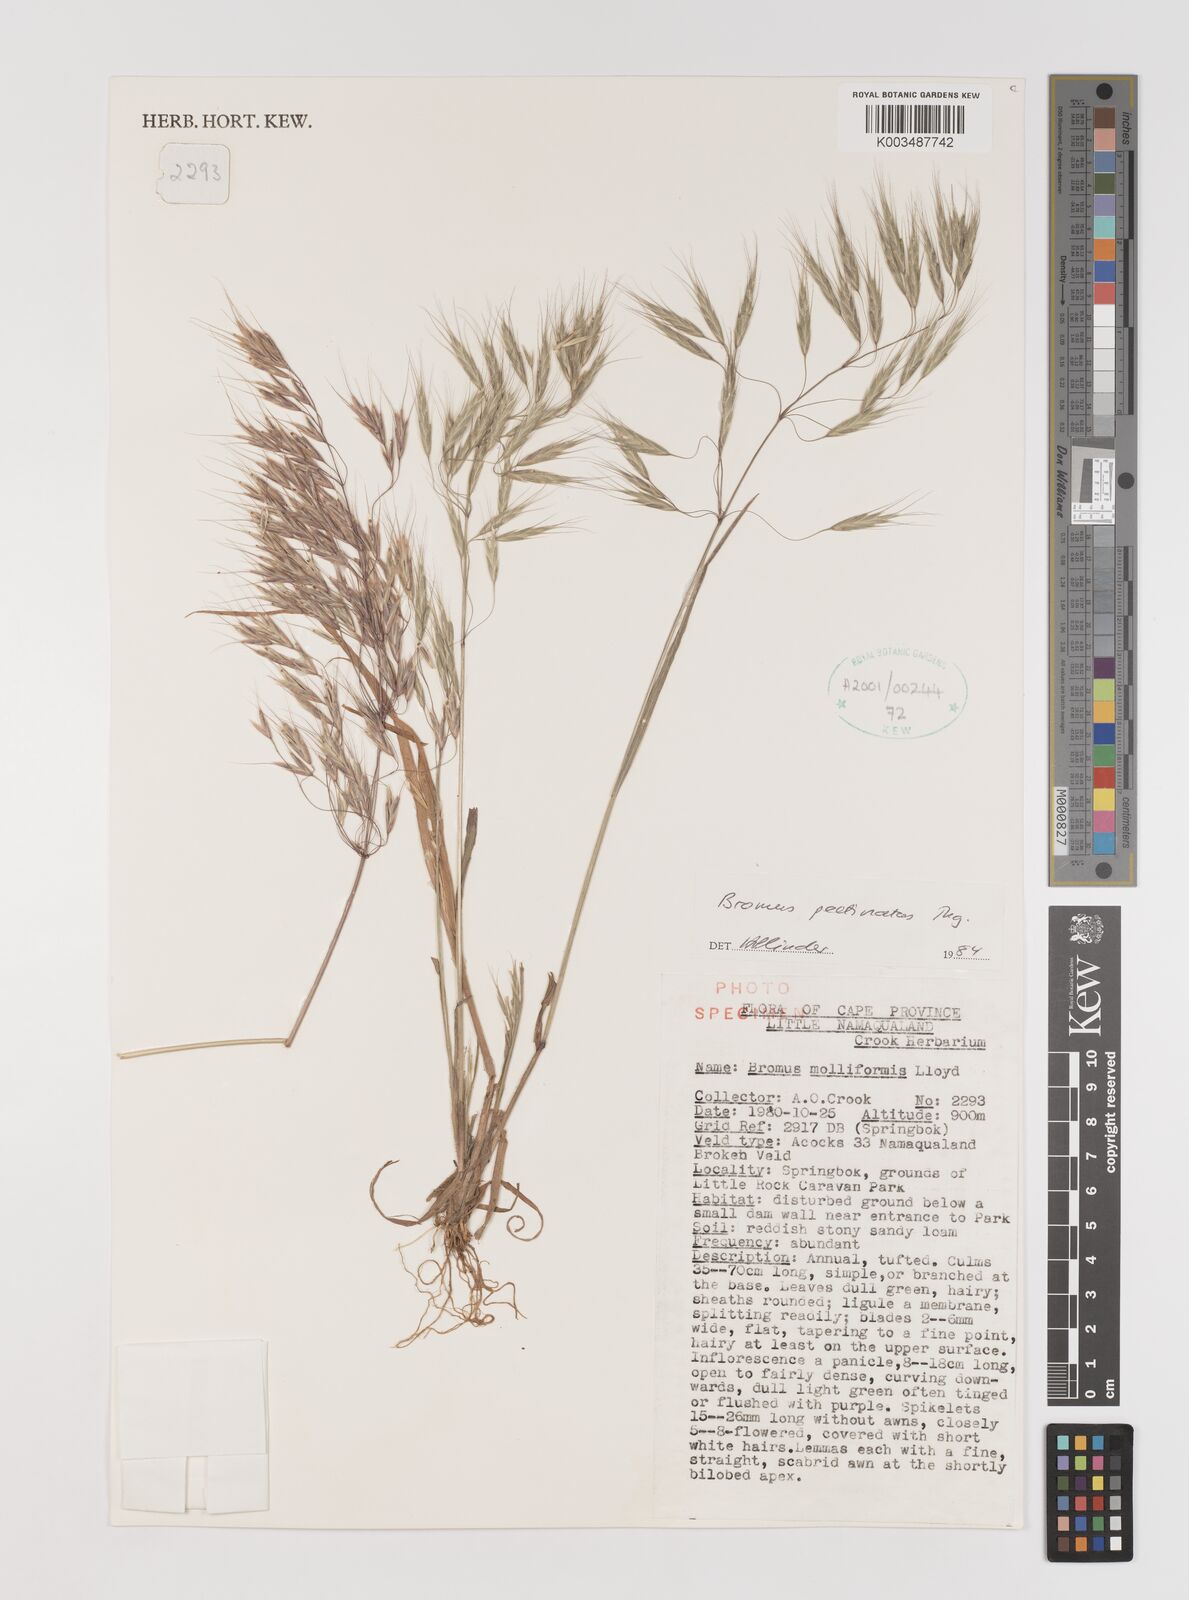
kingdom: Plantae
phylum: Tracheophyta
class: Liliopsida
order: Poales
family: Poaceae
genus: Bromus
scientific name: Bromus pectinatus
